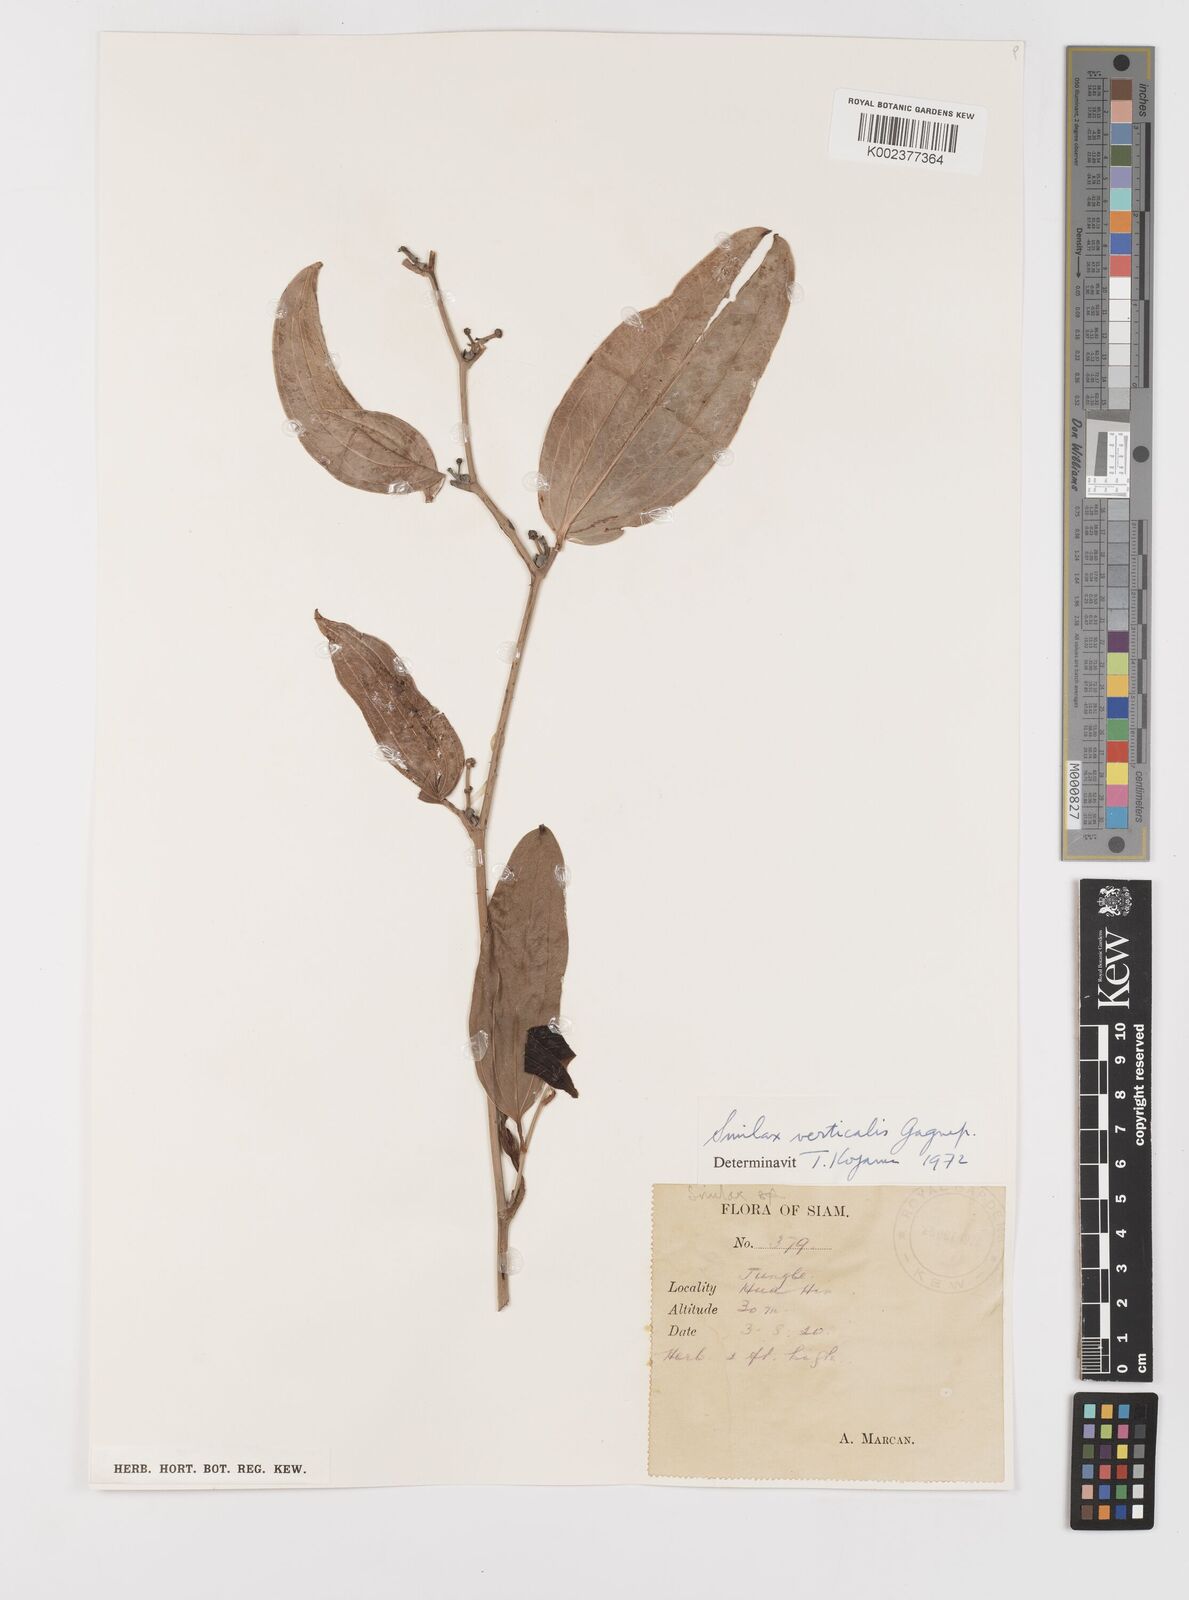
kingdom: Plantae
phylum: Tracheophyta
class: Liliopsida
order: Liliales
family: Smilacaceae
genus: Smilax
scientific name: Smilax verticalis
